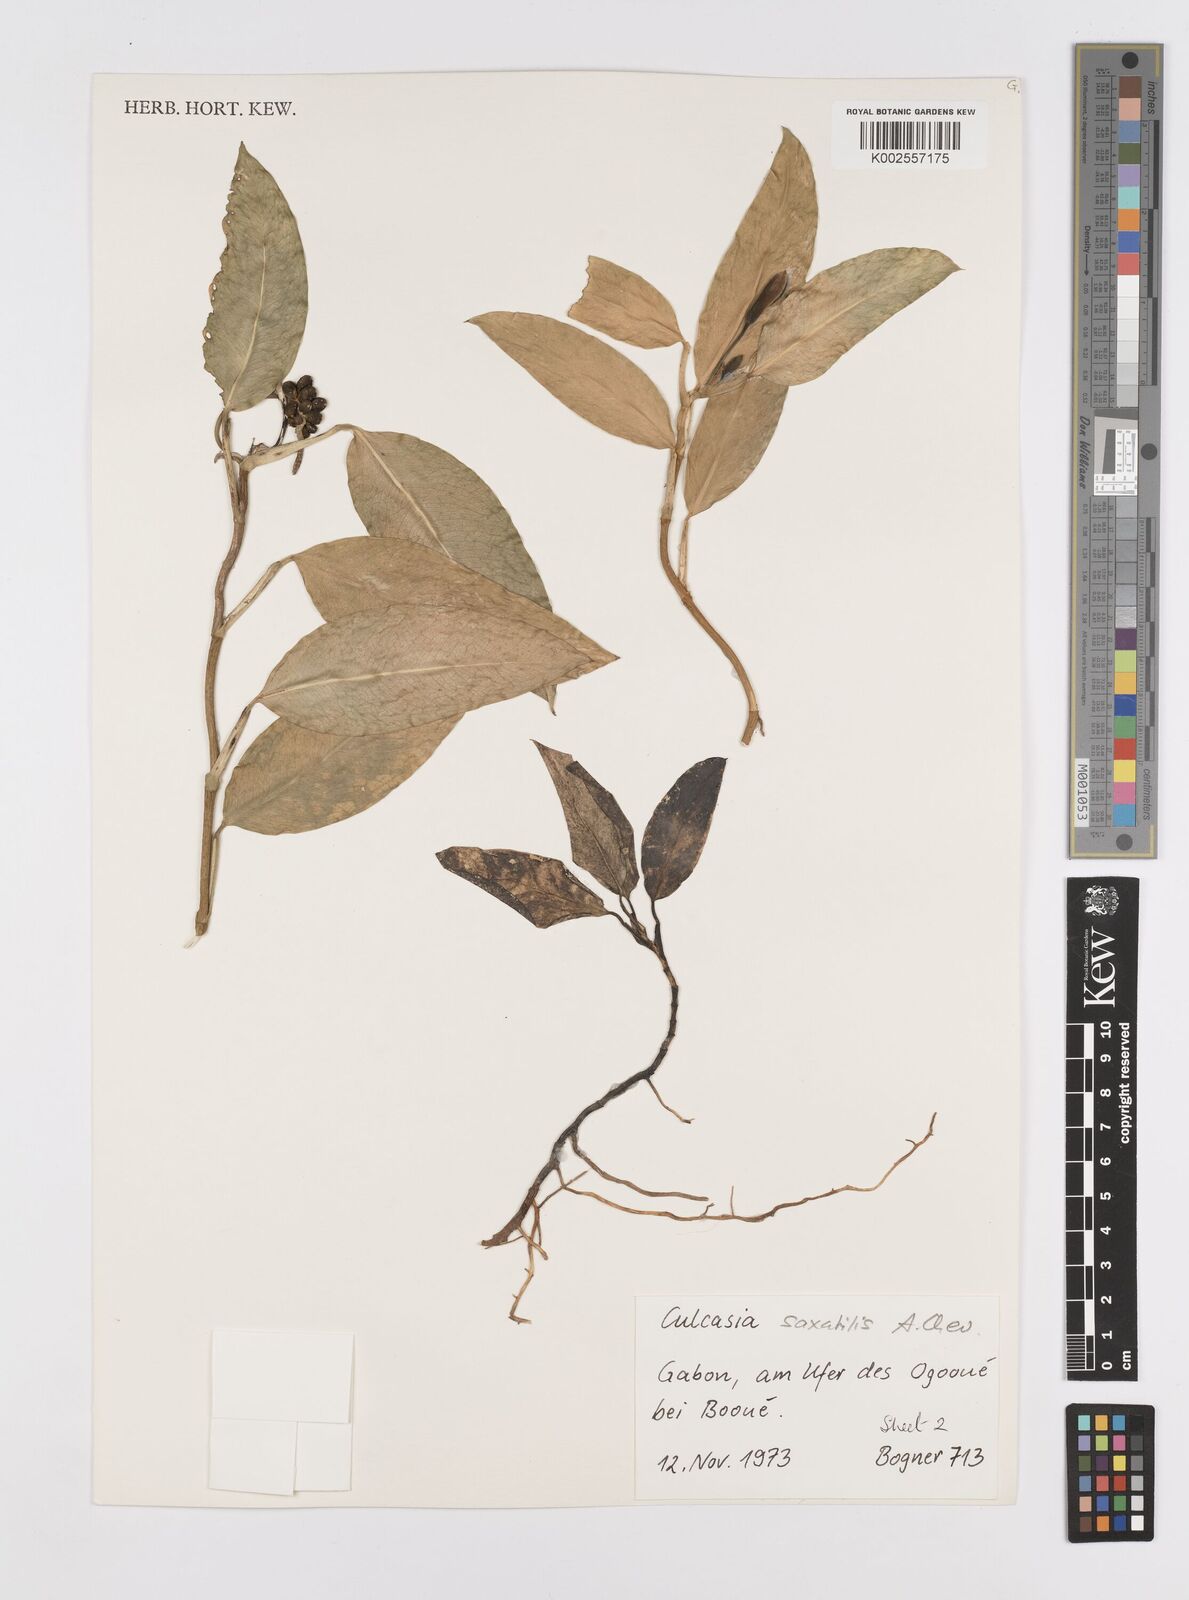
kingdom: Plantae
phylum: Tracheophyta
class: Liliopsida
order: Alismatales
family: Araceae
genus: Culcasia
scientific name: Culcasia scandens
